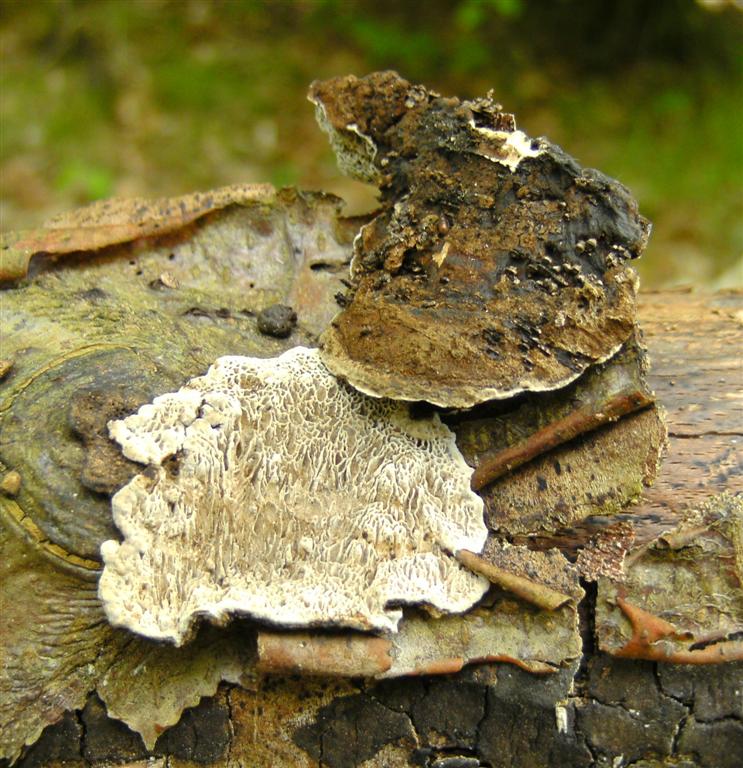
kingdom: Fungi
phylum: Basidiomycota
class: Agaricomycetes
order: Polyporales
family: Polyporaceae
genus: Podofomes
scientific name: Podofomes mollis
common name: blød begporesvamp
